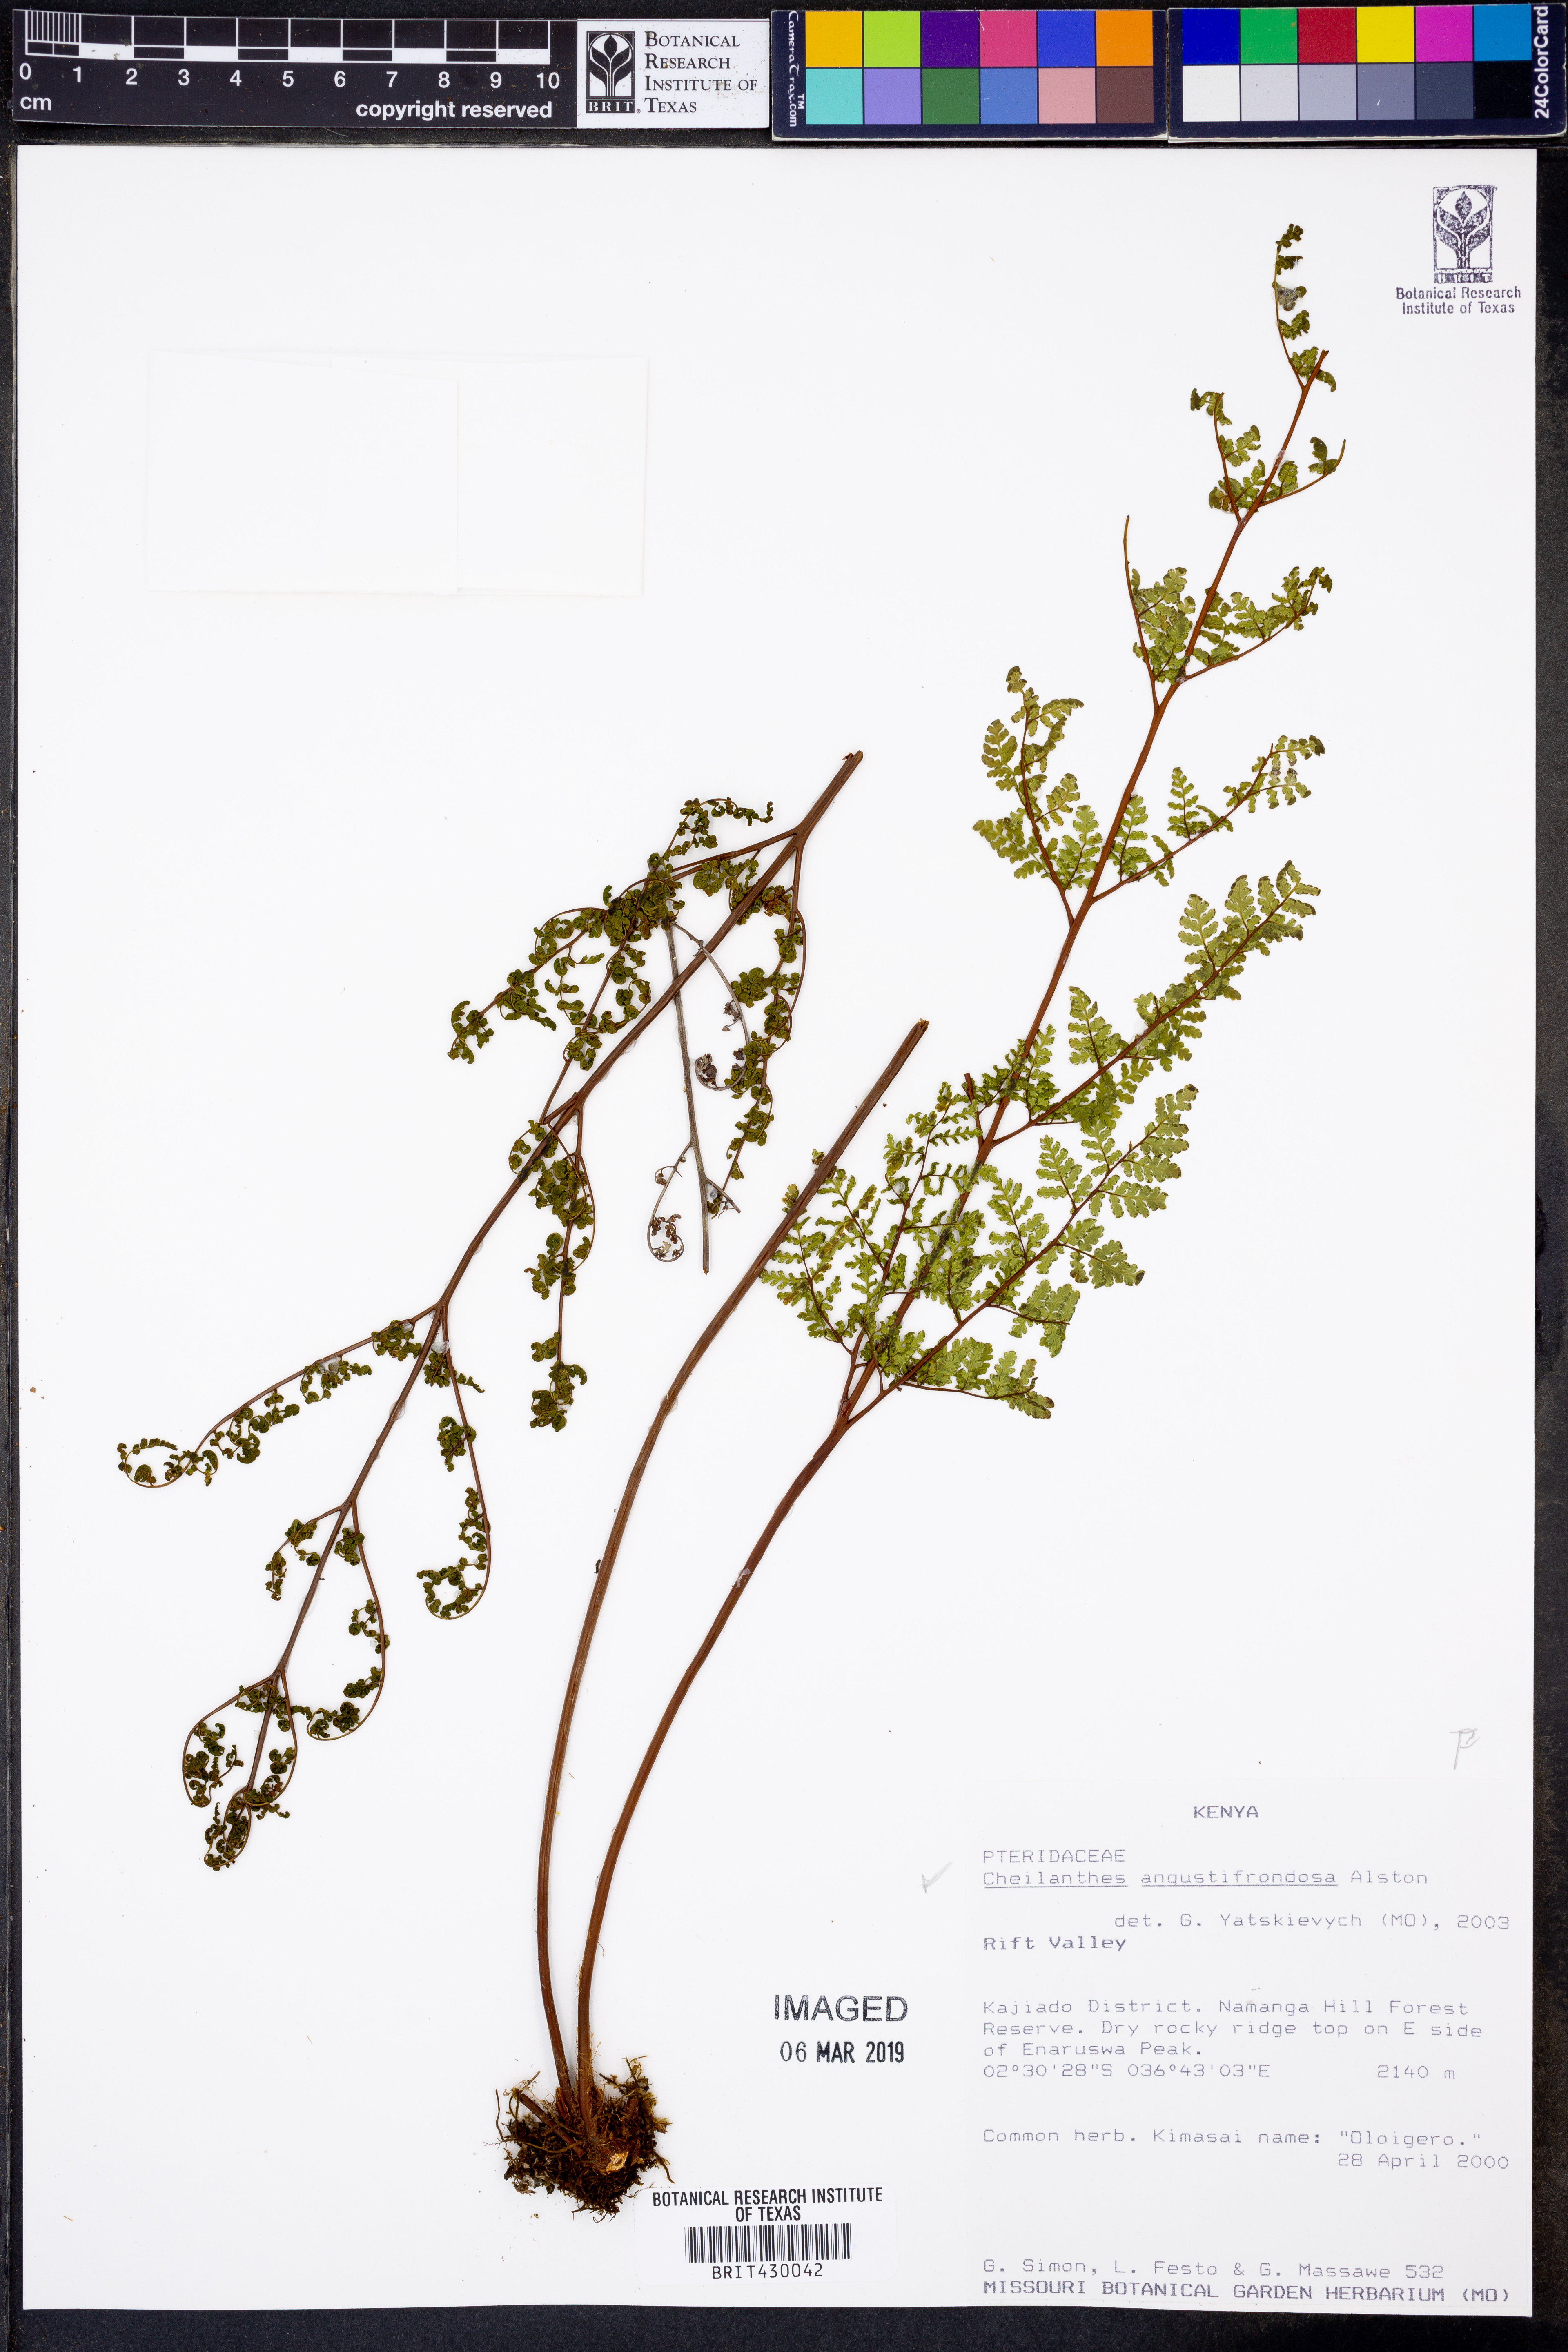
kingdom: Plantae
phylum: Tracheophyta
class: Polypodiopsida
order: Polypodiales
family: Pteridaceae
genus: Gaga
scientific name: Gaga angustifolia
